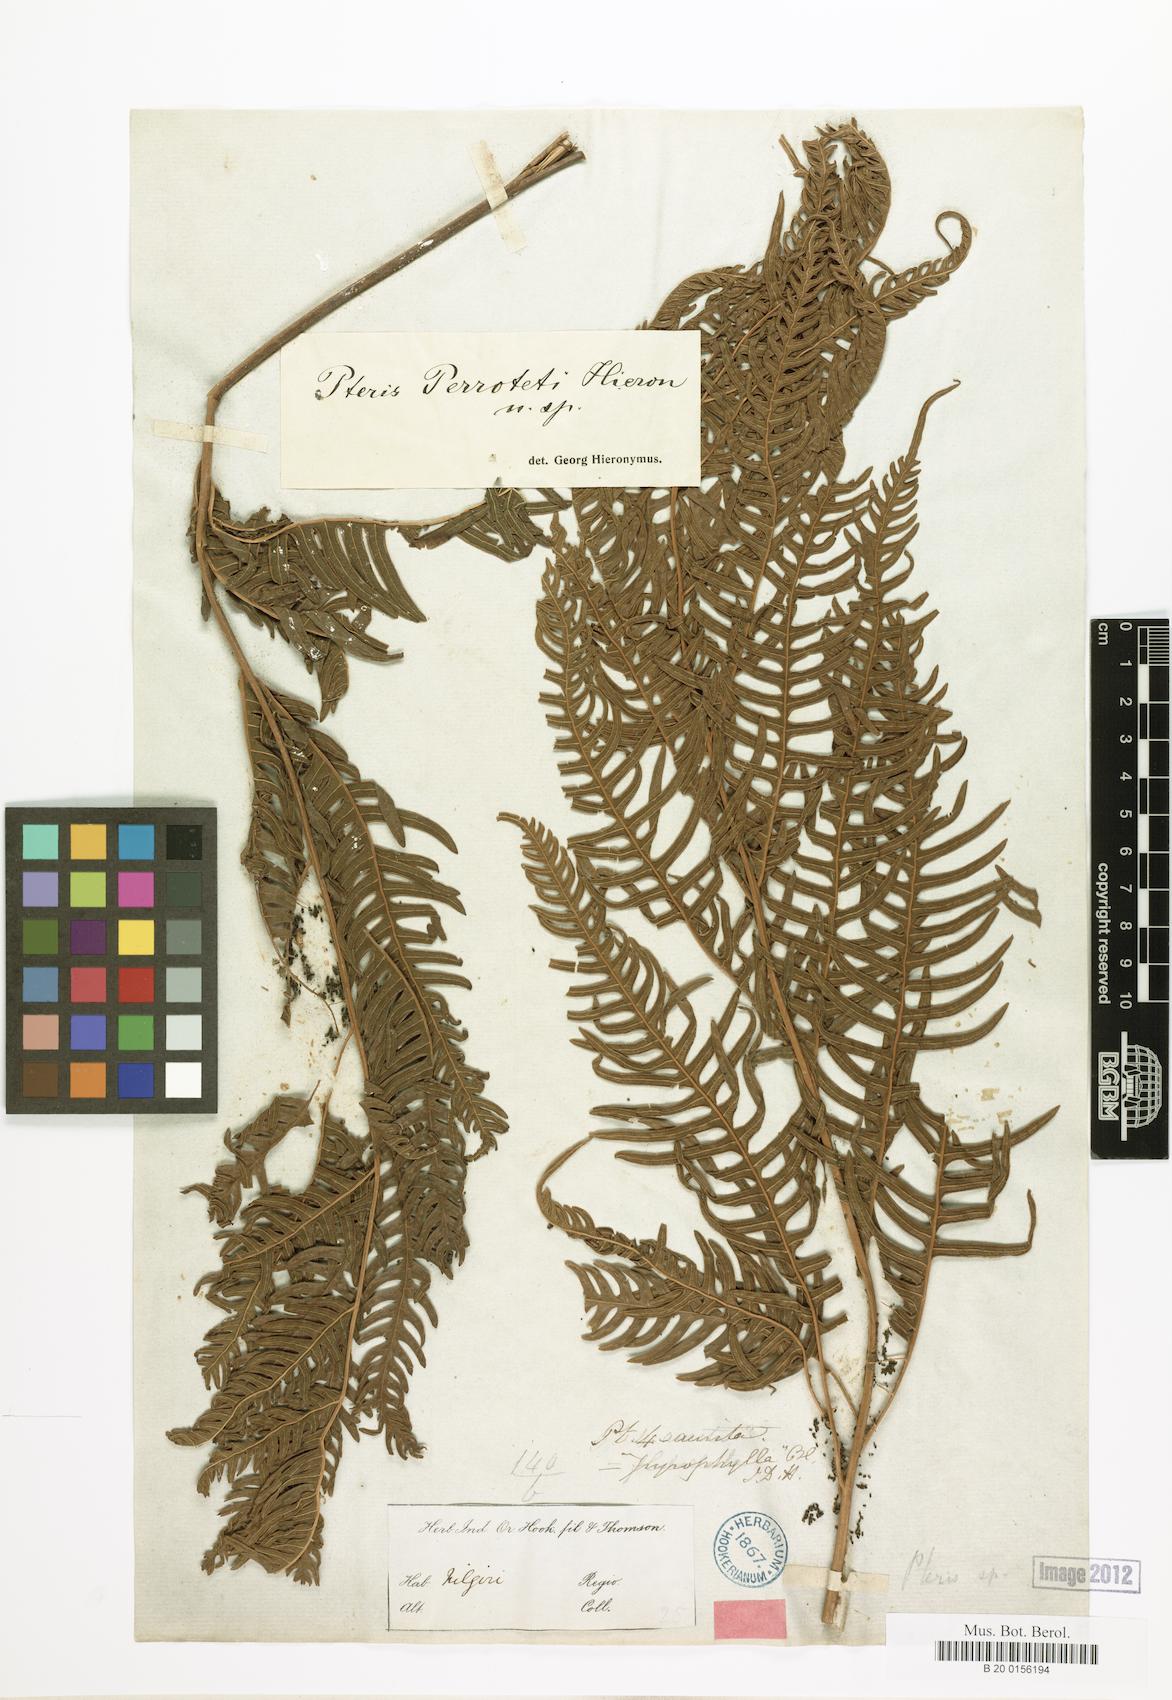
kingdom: Plantae
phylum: Tracheophyta
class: Polypodiopsida
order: Polypodiales
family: Pteridaceae
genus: Pteris
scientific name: Pteris perrottetii
